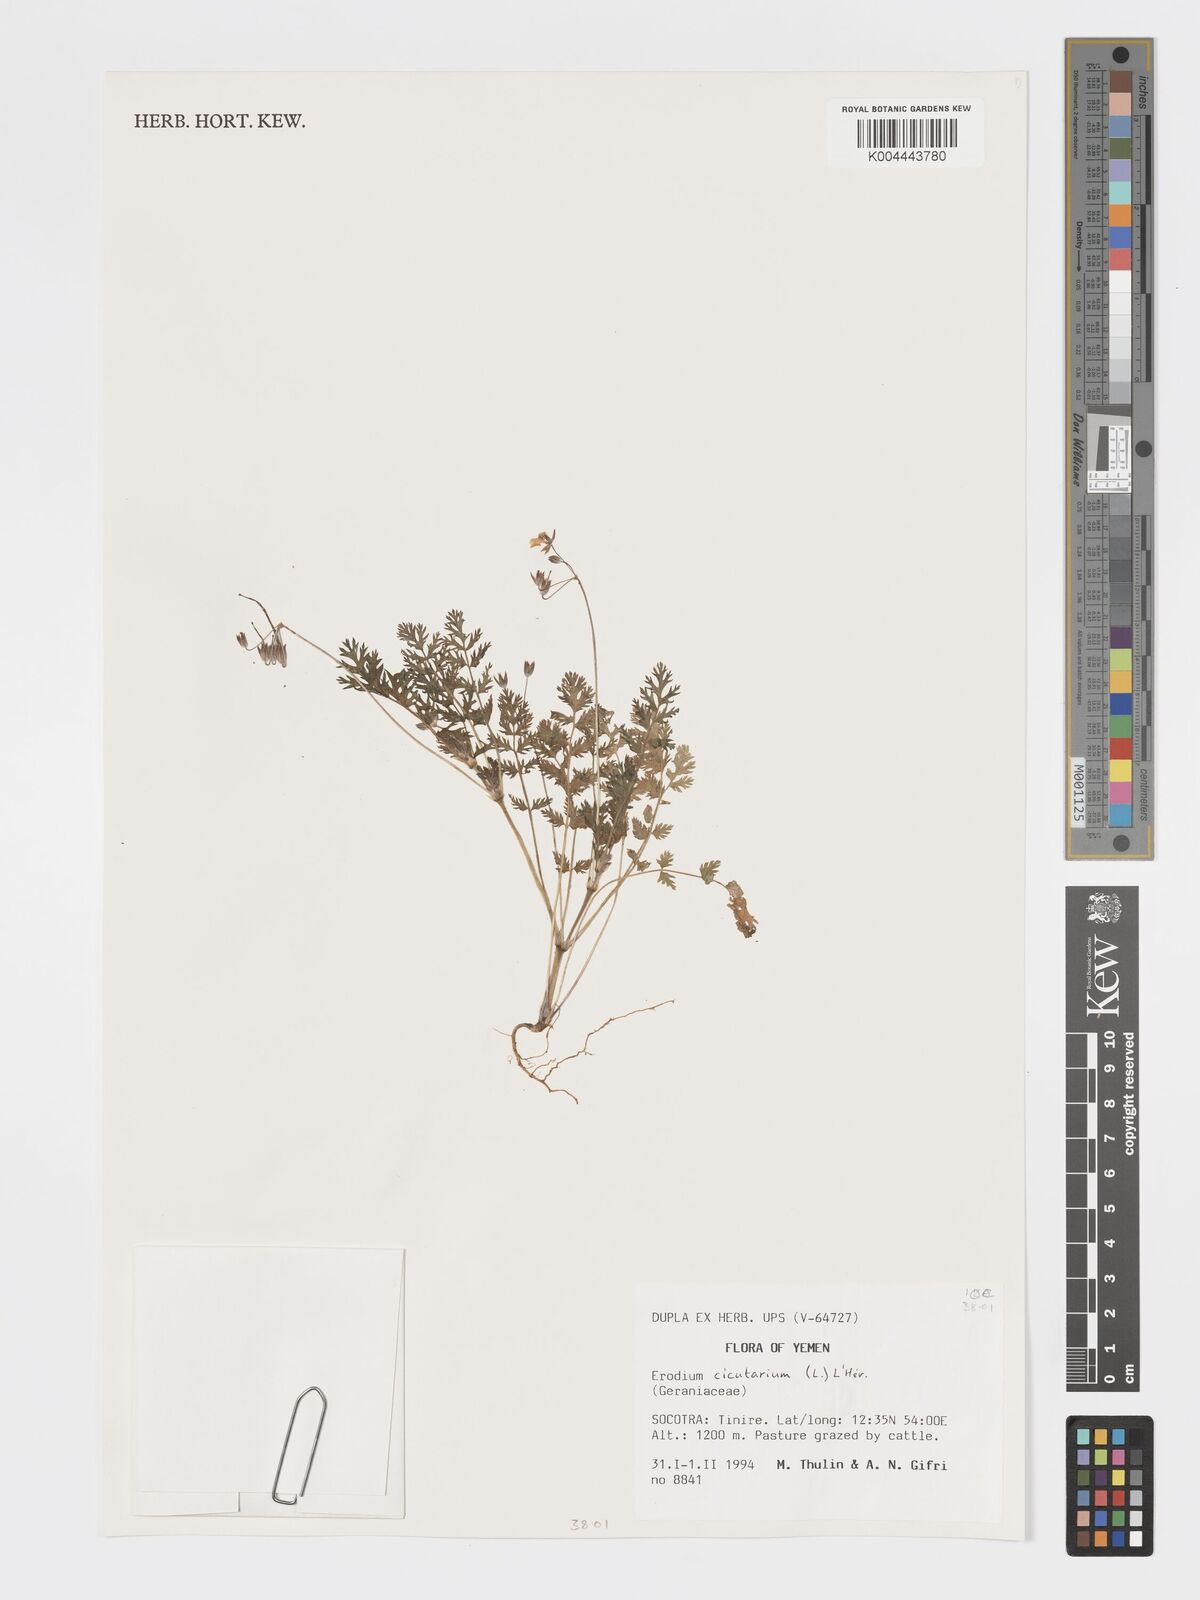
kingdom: Plantae
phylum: Tracheophyta
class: Magnoliopsida
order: Geraniales
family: Geraniaceae
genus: Erodium
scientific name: Erodium cicutarium
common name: Common stork's-bill
